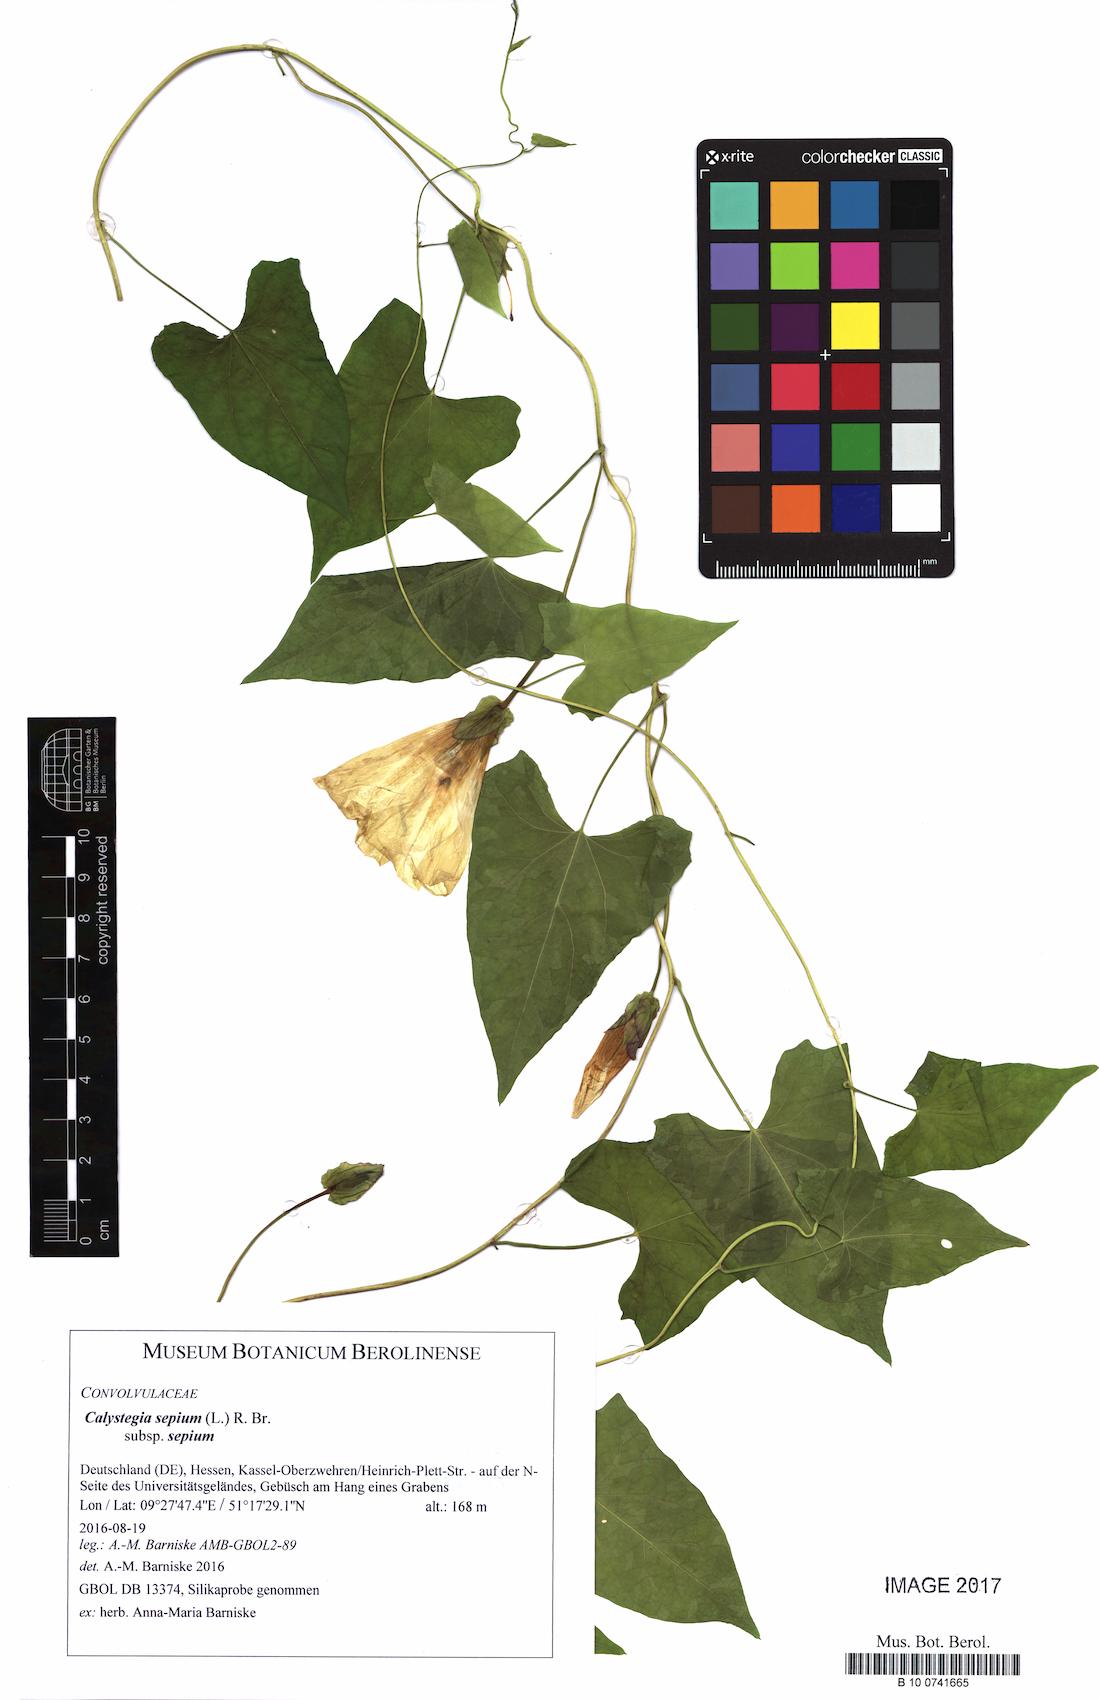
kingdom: Plantae
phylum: Tracheophyta
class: Magnoliopsida
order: Solanales
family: Convolvulaceae
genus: Calystegia
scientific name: Calystegia sepium
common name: Hedge bindweed
